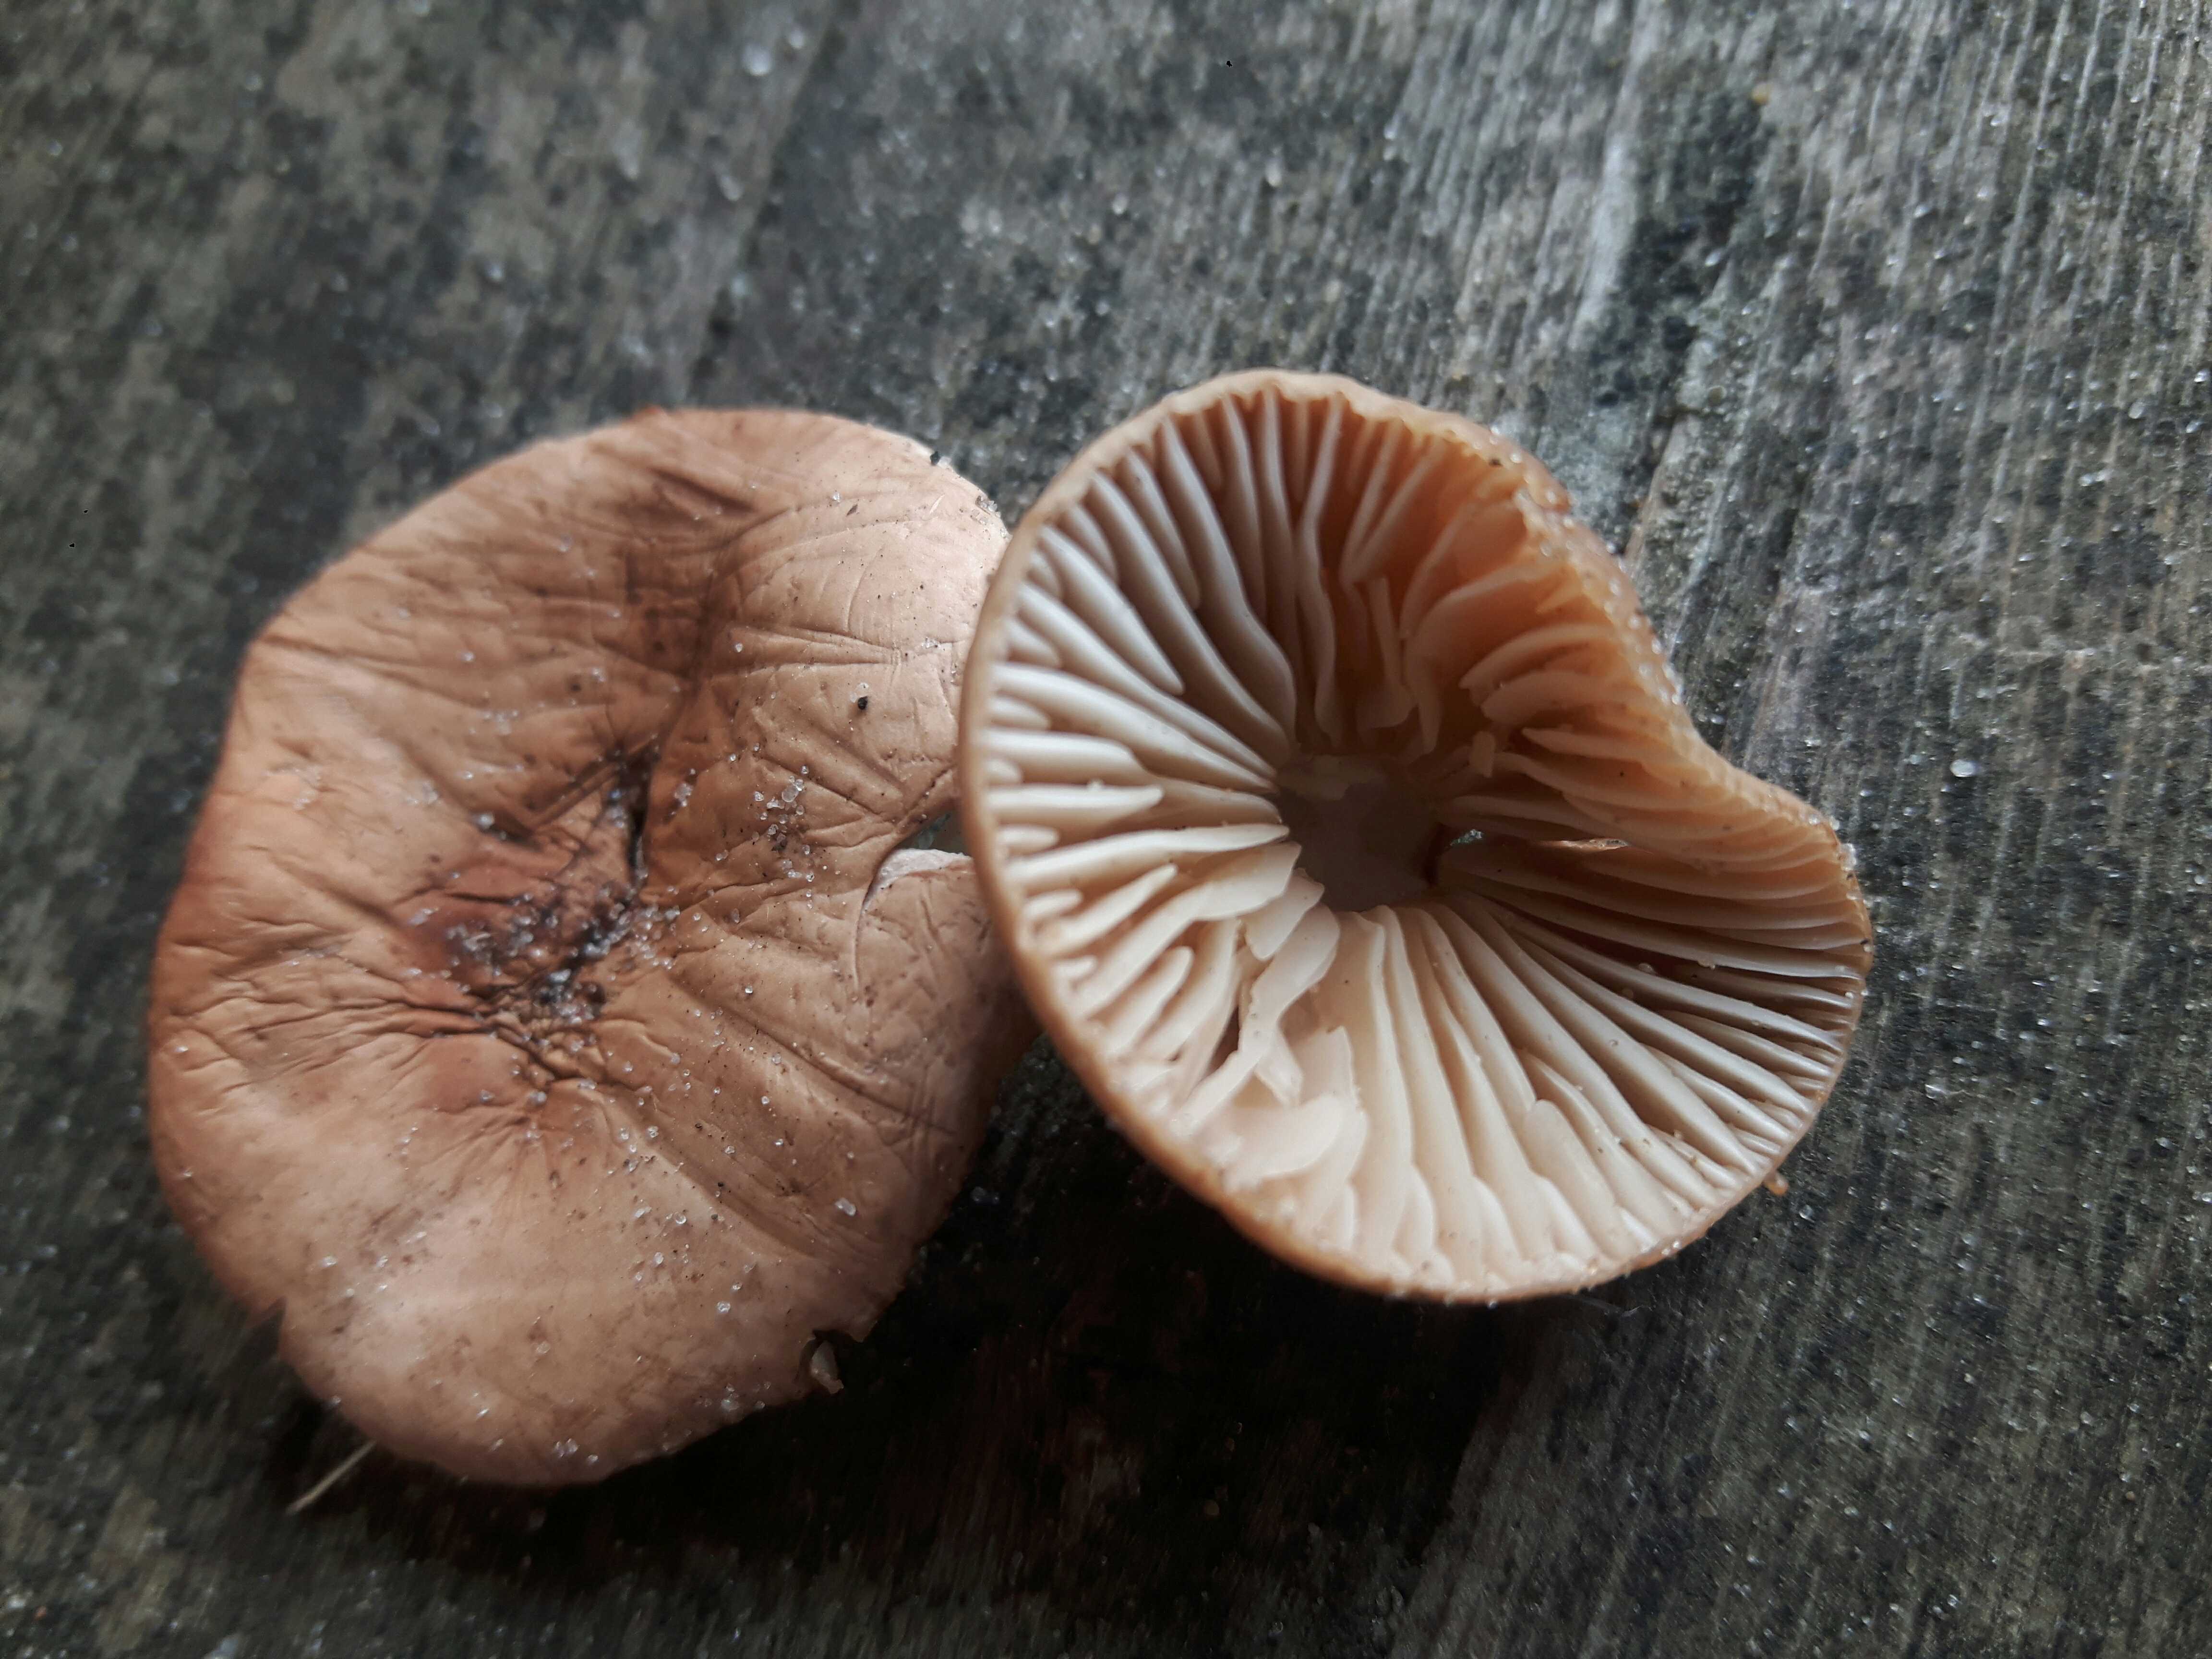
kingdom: Fungi
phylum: Basidiomycota
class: Agaricomycetes
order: Agaricales
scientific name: Agaricales
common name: champignonordenen
